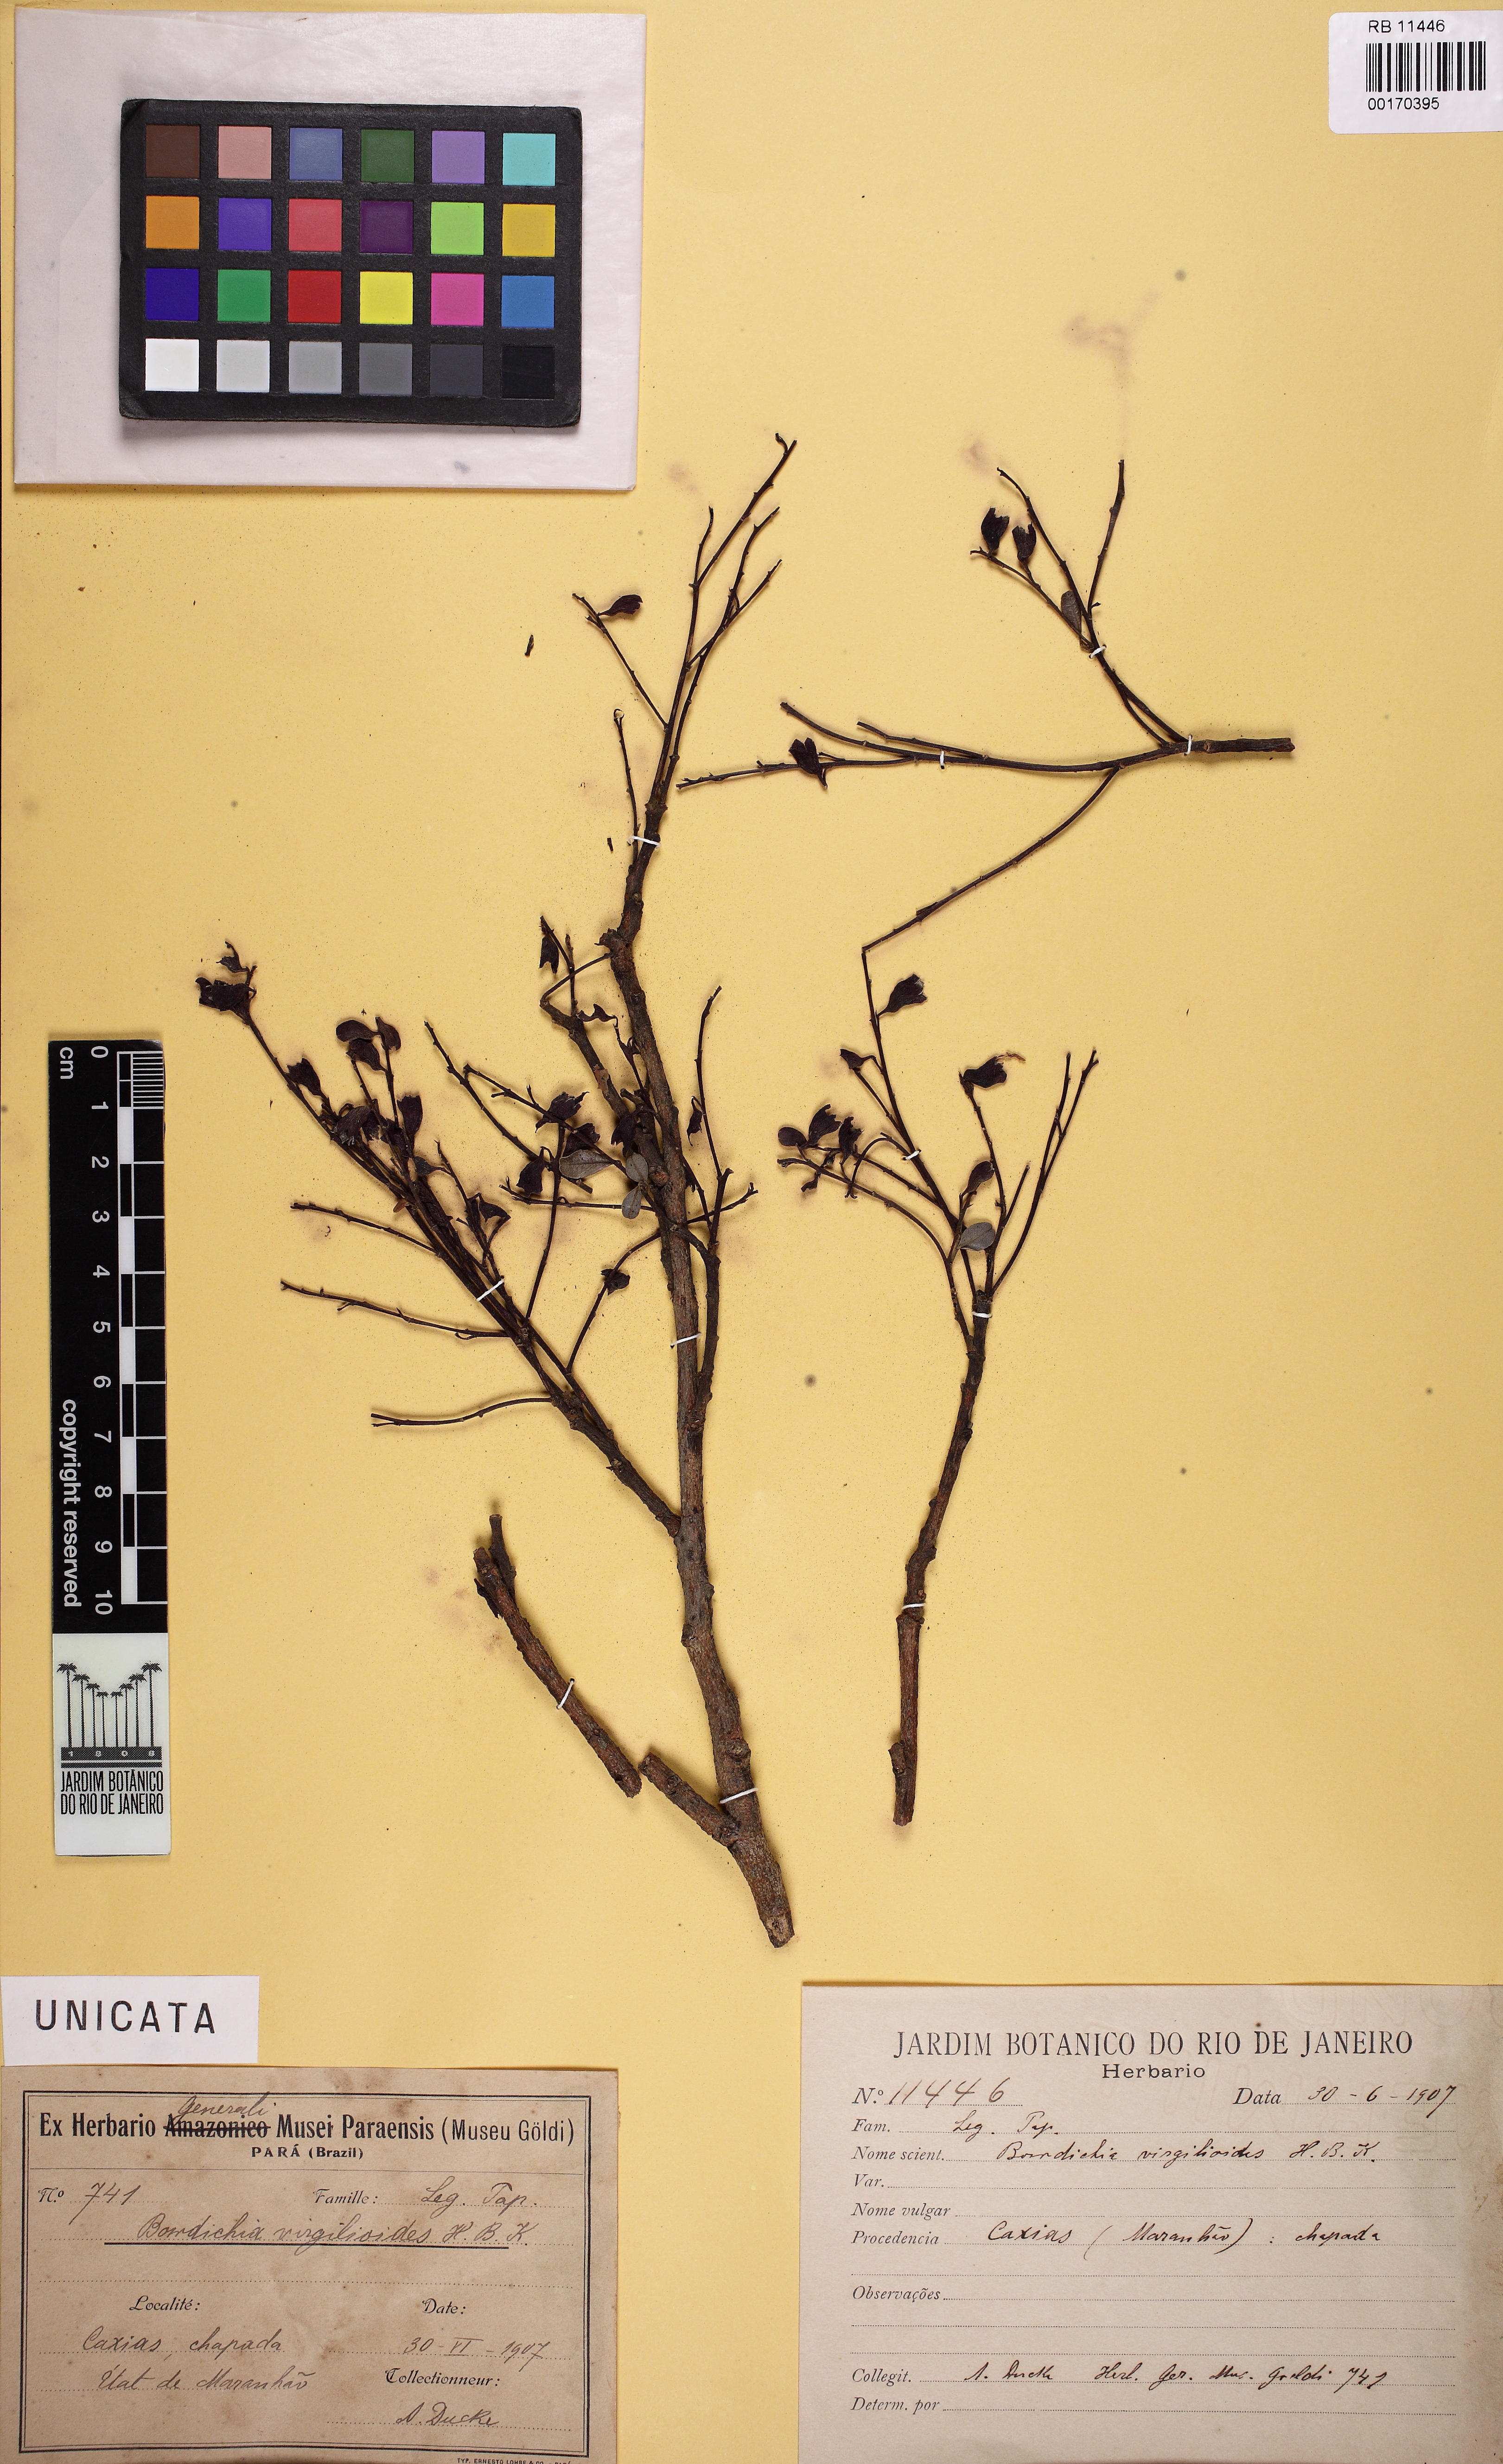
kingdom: Plantae
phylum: Tracheophyta
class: Magnoliopsida
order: Fabales
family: Fabaceae
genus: Bowdichia
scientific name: Bowdichia virgilioides
